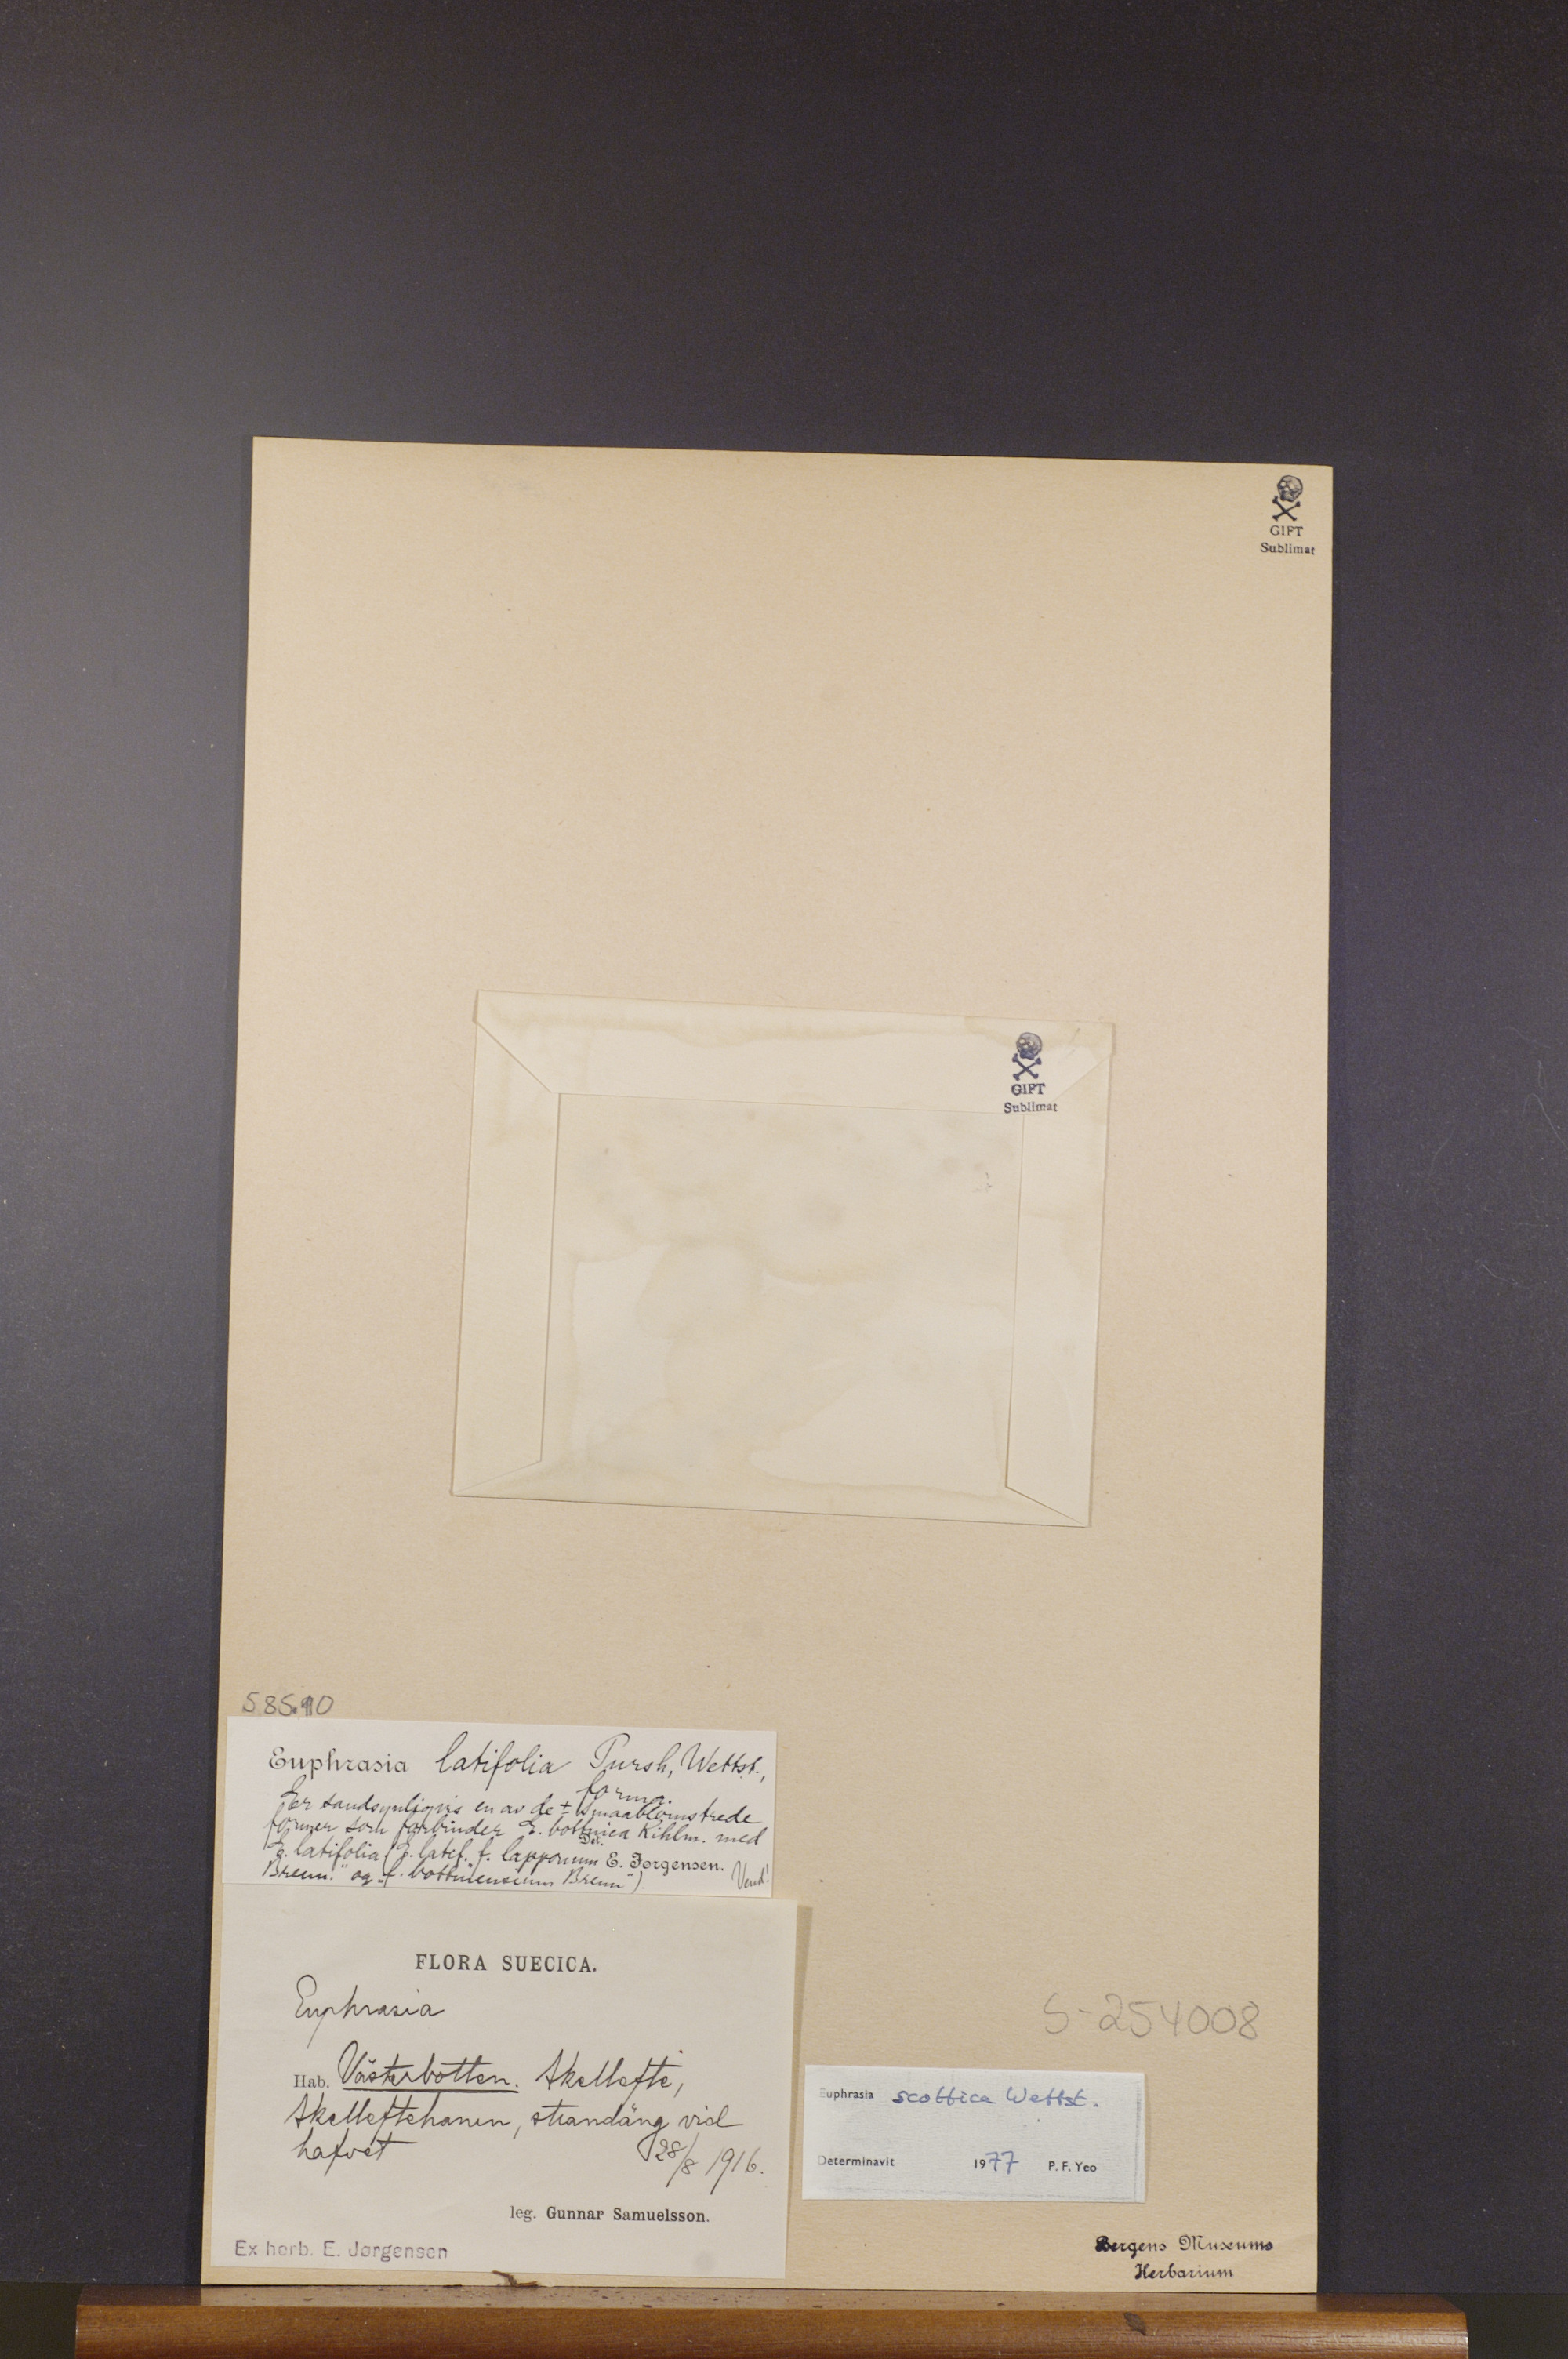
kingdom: Plantae
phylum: Tracheophyta
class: Magnoliopsida
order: Lamiales
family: Orobanchaceae
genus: Euphrasia
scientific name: Euphrasia scottica
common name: Slender scottish eyebright
